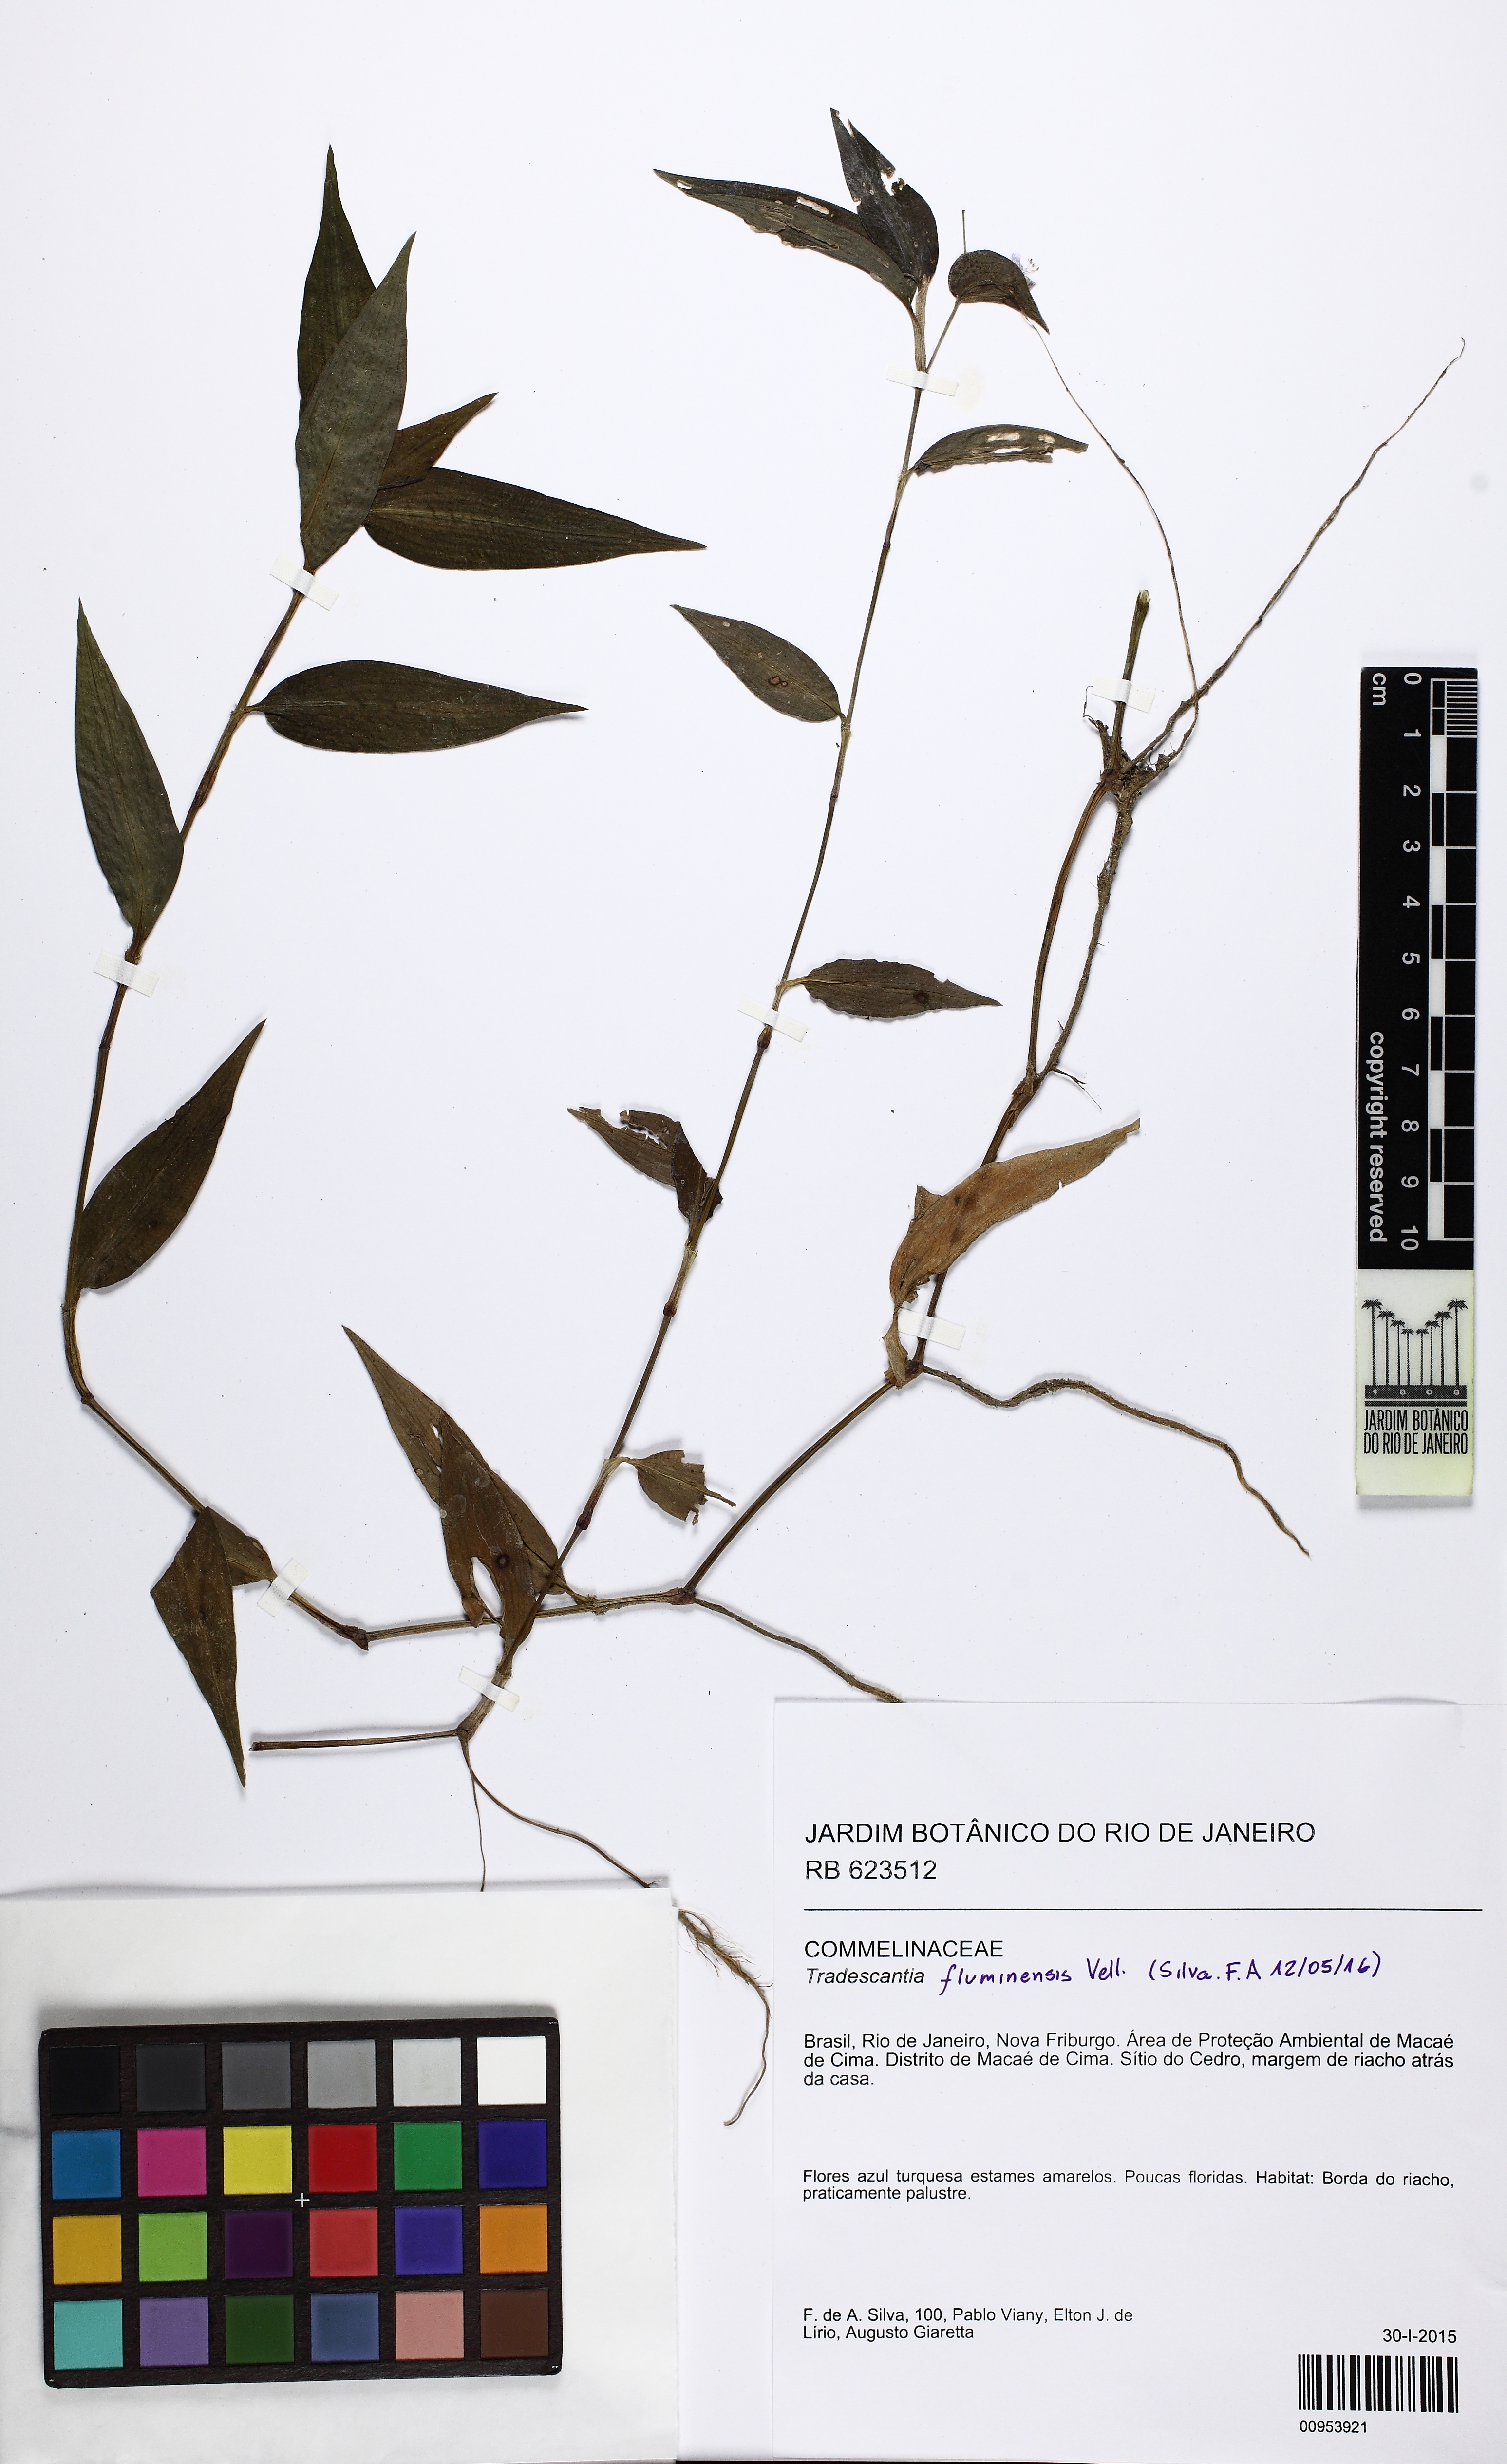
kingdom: Plantae
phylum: Tracheophyta
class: Liliopsida
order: Commelinales
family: Commelinaceae
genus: Tradescantia
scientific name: Tradescantia fluminensis
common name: Wandering-jew
